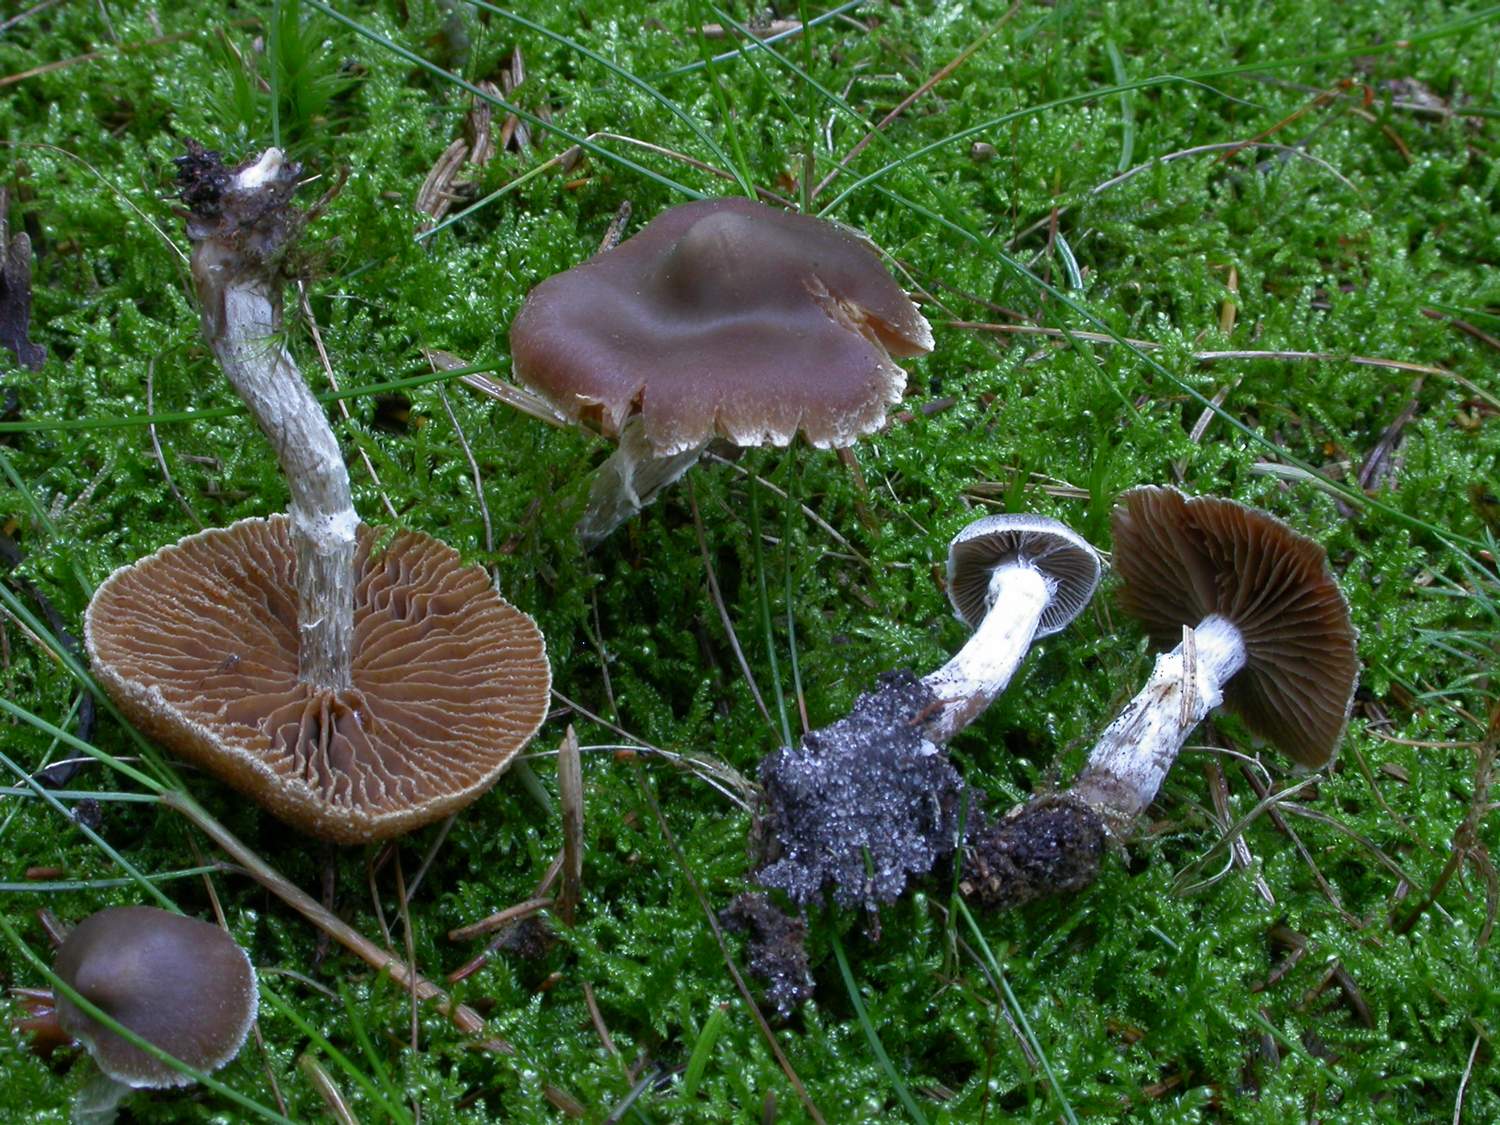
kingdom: Fungi
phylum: Basidiomycota
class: Agaricomycetes
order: Agaricales
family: Cortinariaceae
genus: Cortinarius
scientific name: Cortinarius umbrinolens
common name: mørk slørhat
